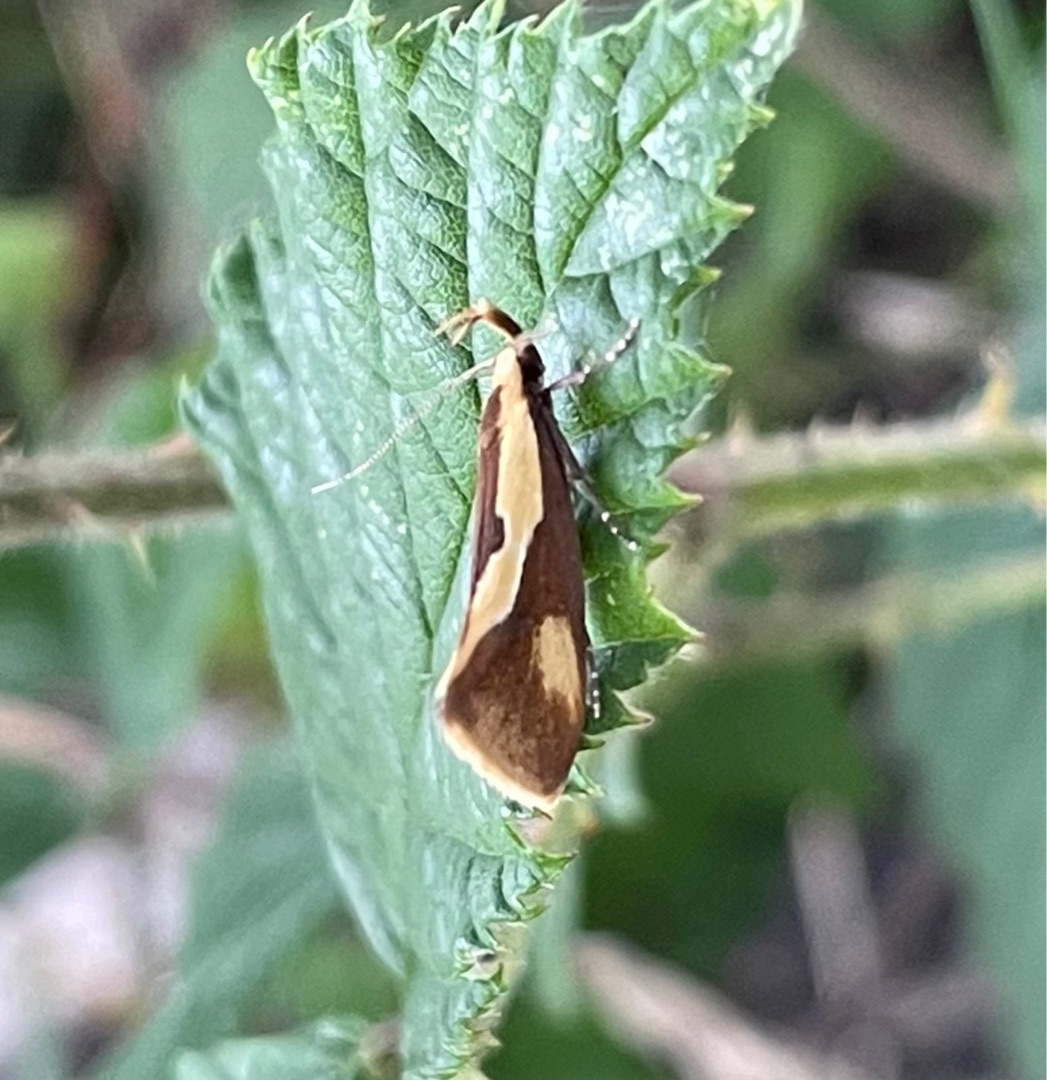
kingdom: Animalia
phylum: Arthropoda
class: Insecta
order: Lepidoptera
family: Oecophoridae
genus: Harpella
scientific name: Harpella forficella
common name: Kæmpeprydvinge
